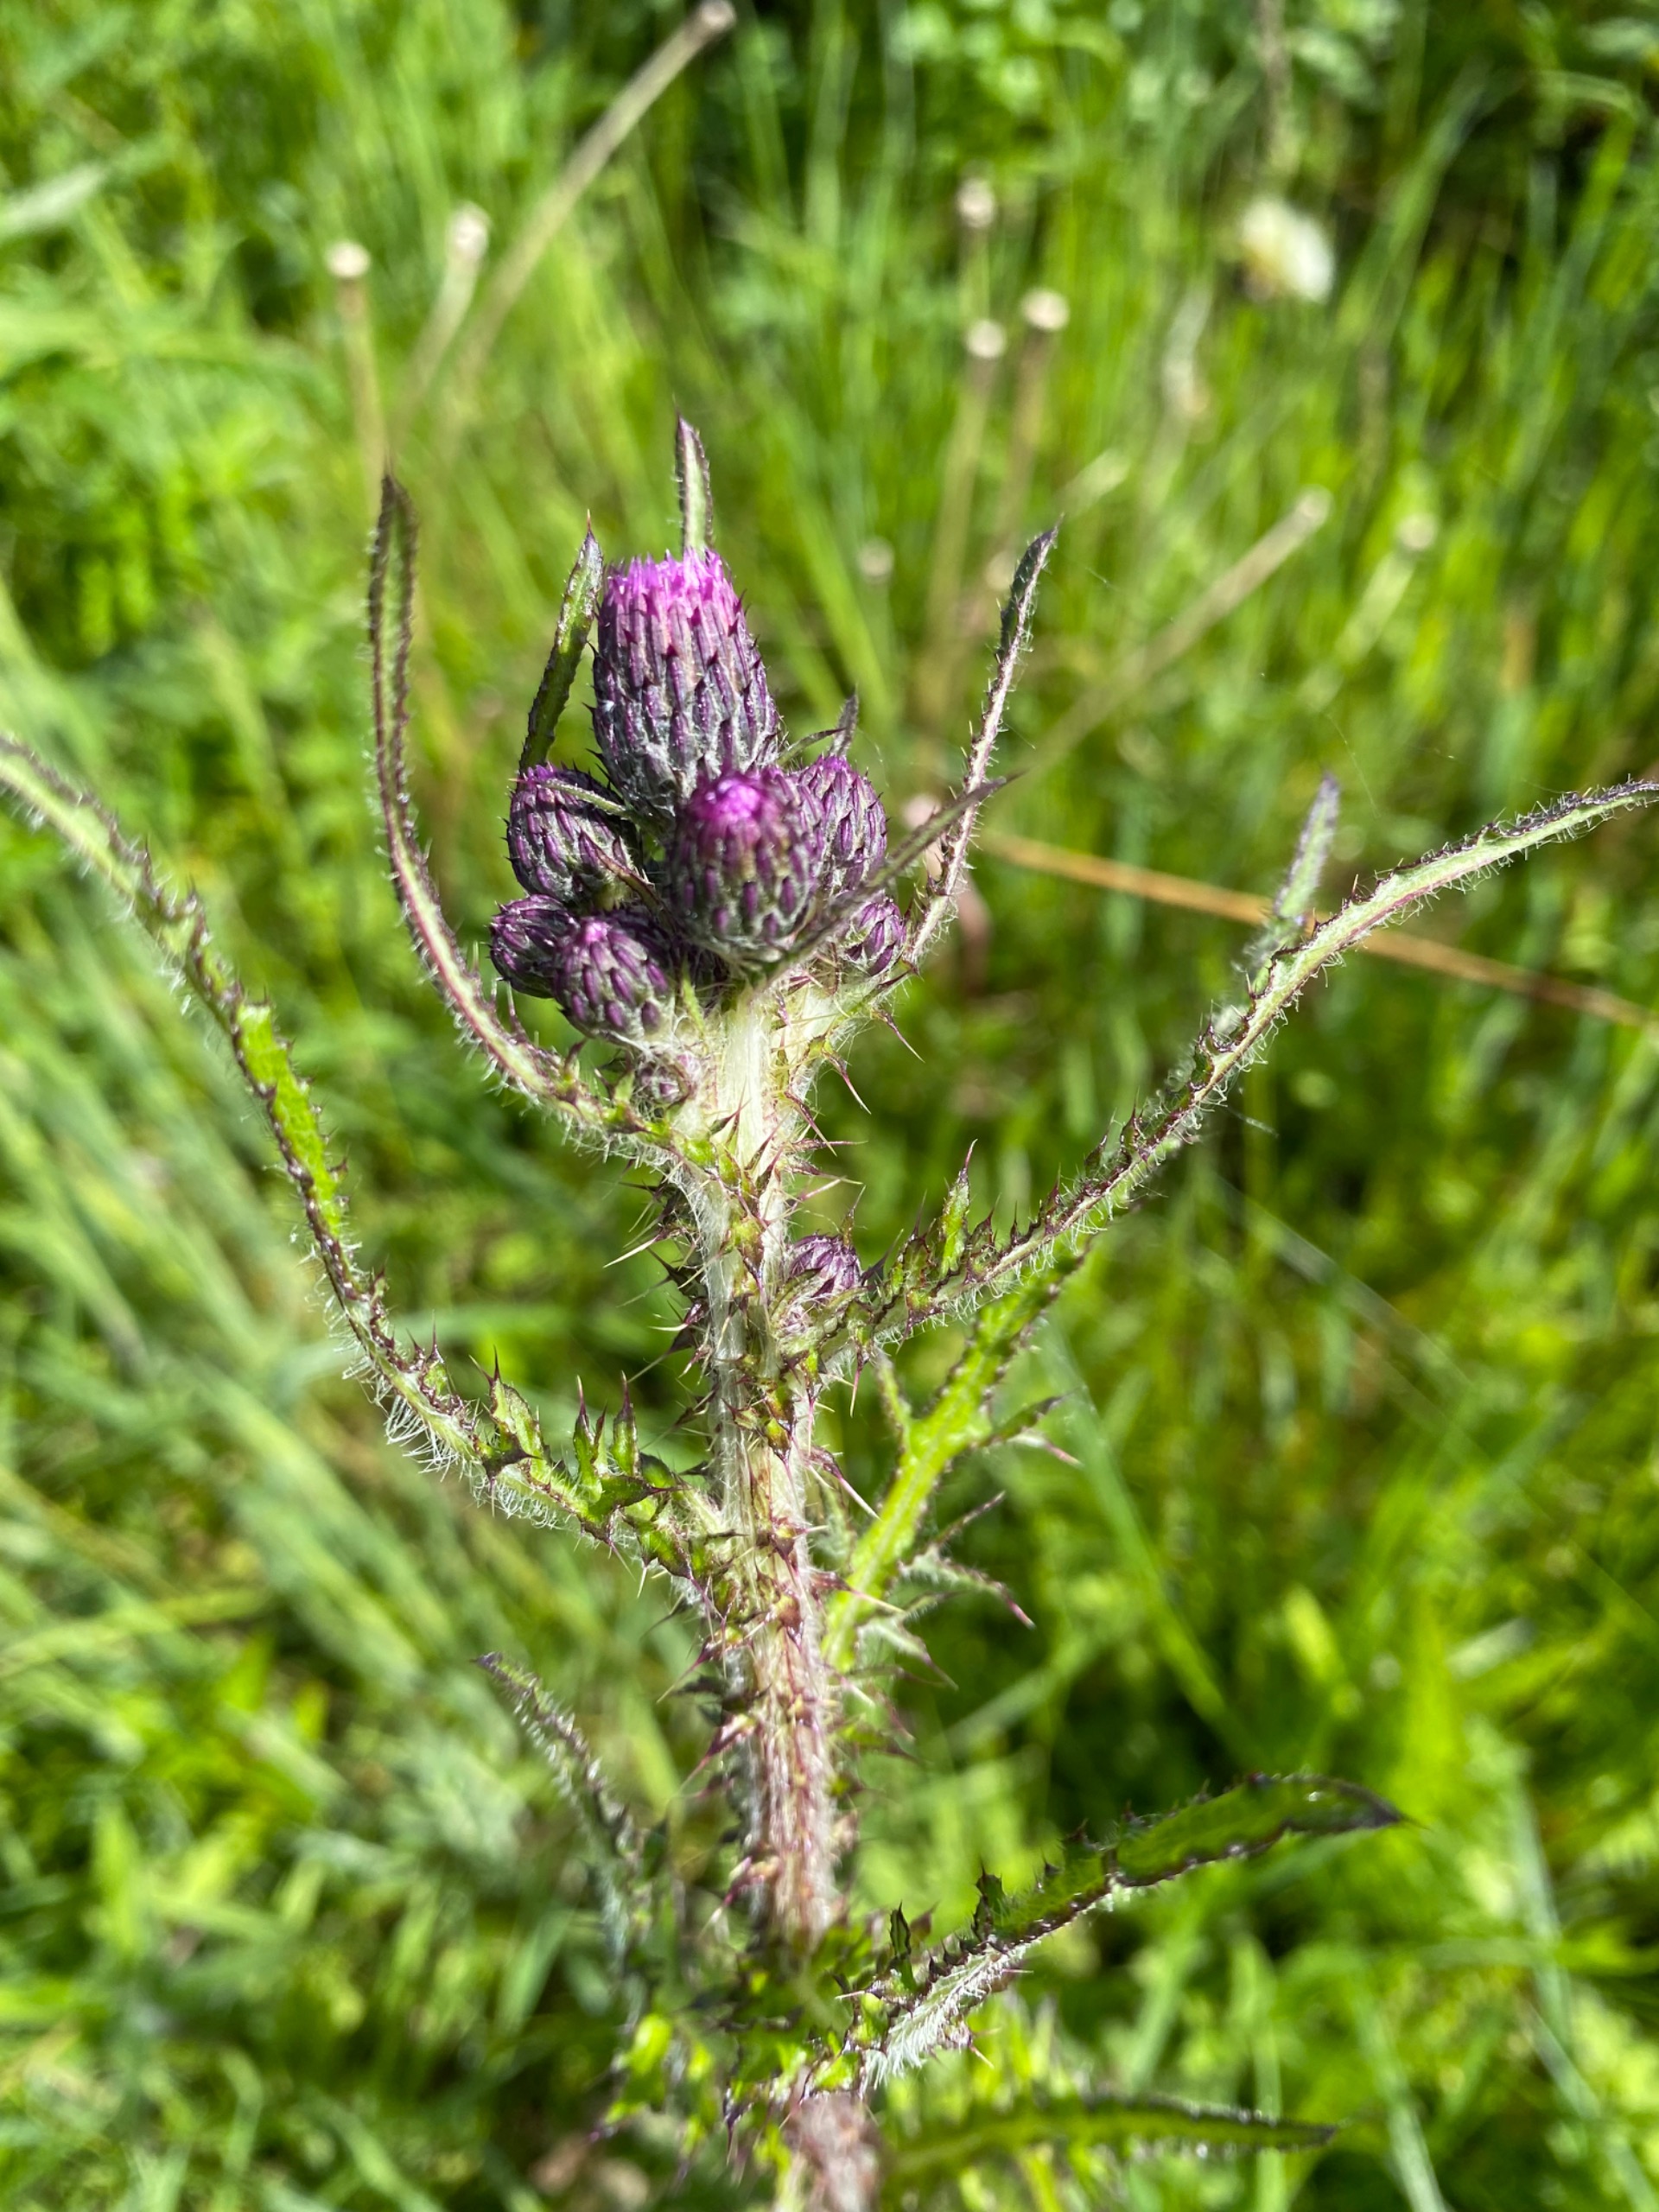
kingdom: Plantae
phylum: Tracheophyta
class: Magnoliopsida
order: Asterales
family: Asteraceae
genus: Cirsium
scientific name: Cirsium palustre
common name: Kær-tidsel
